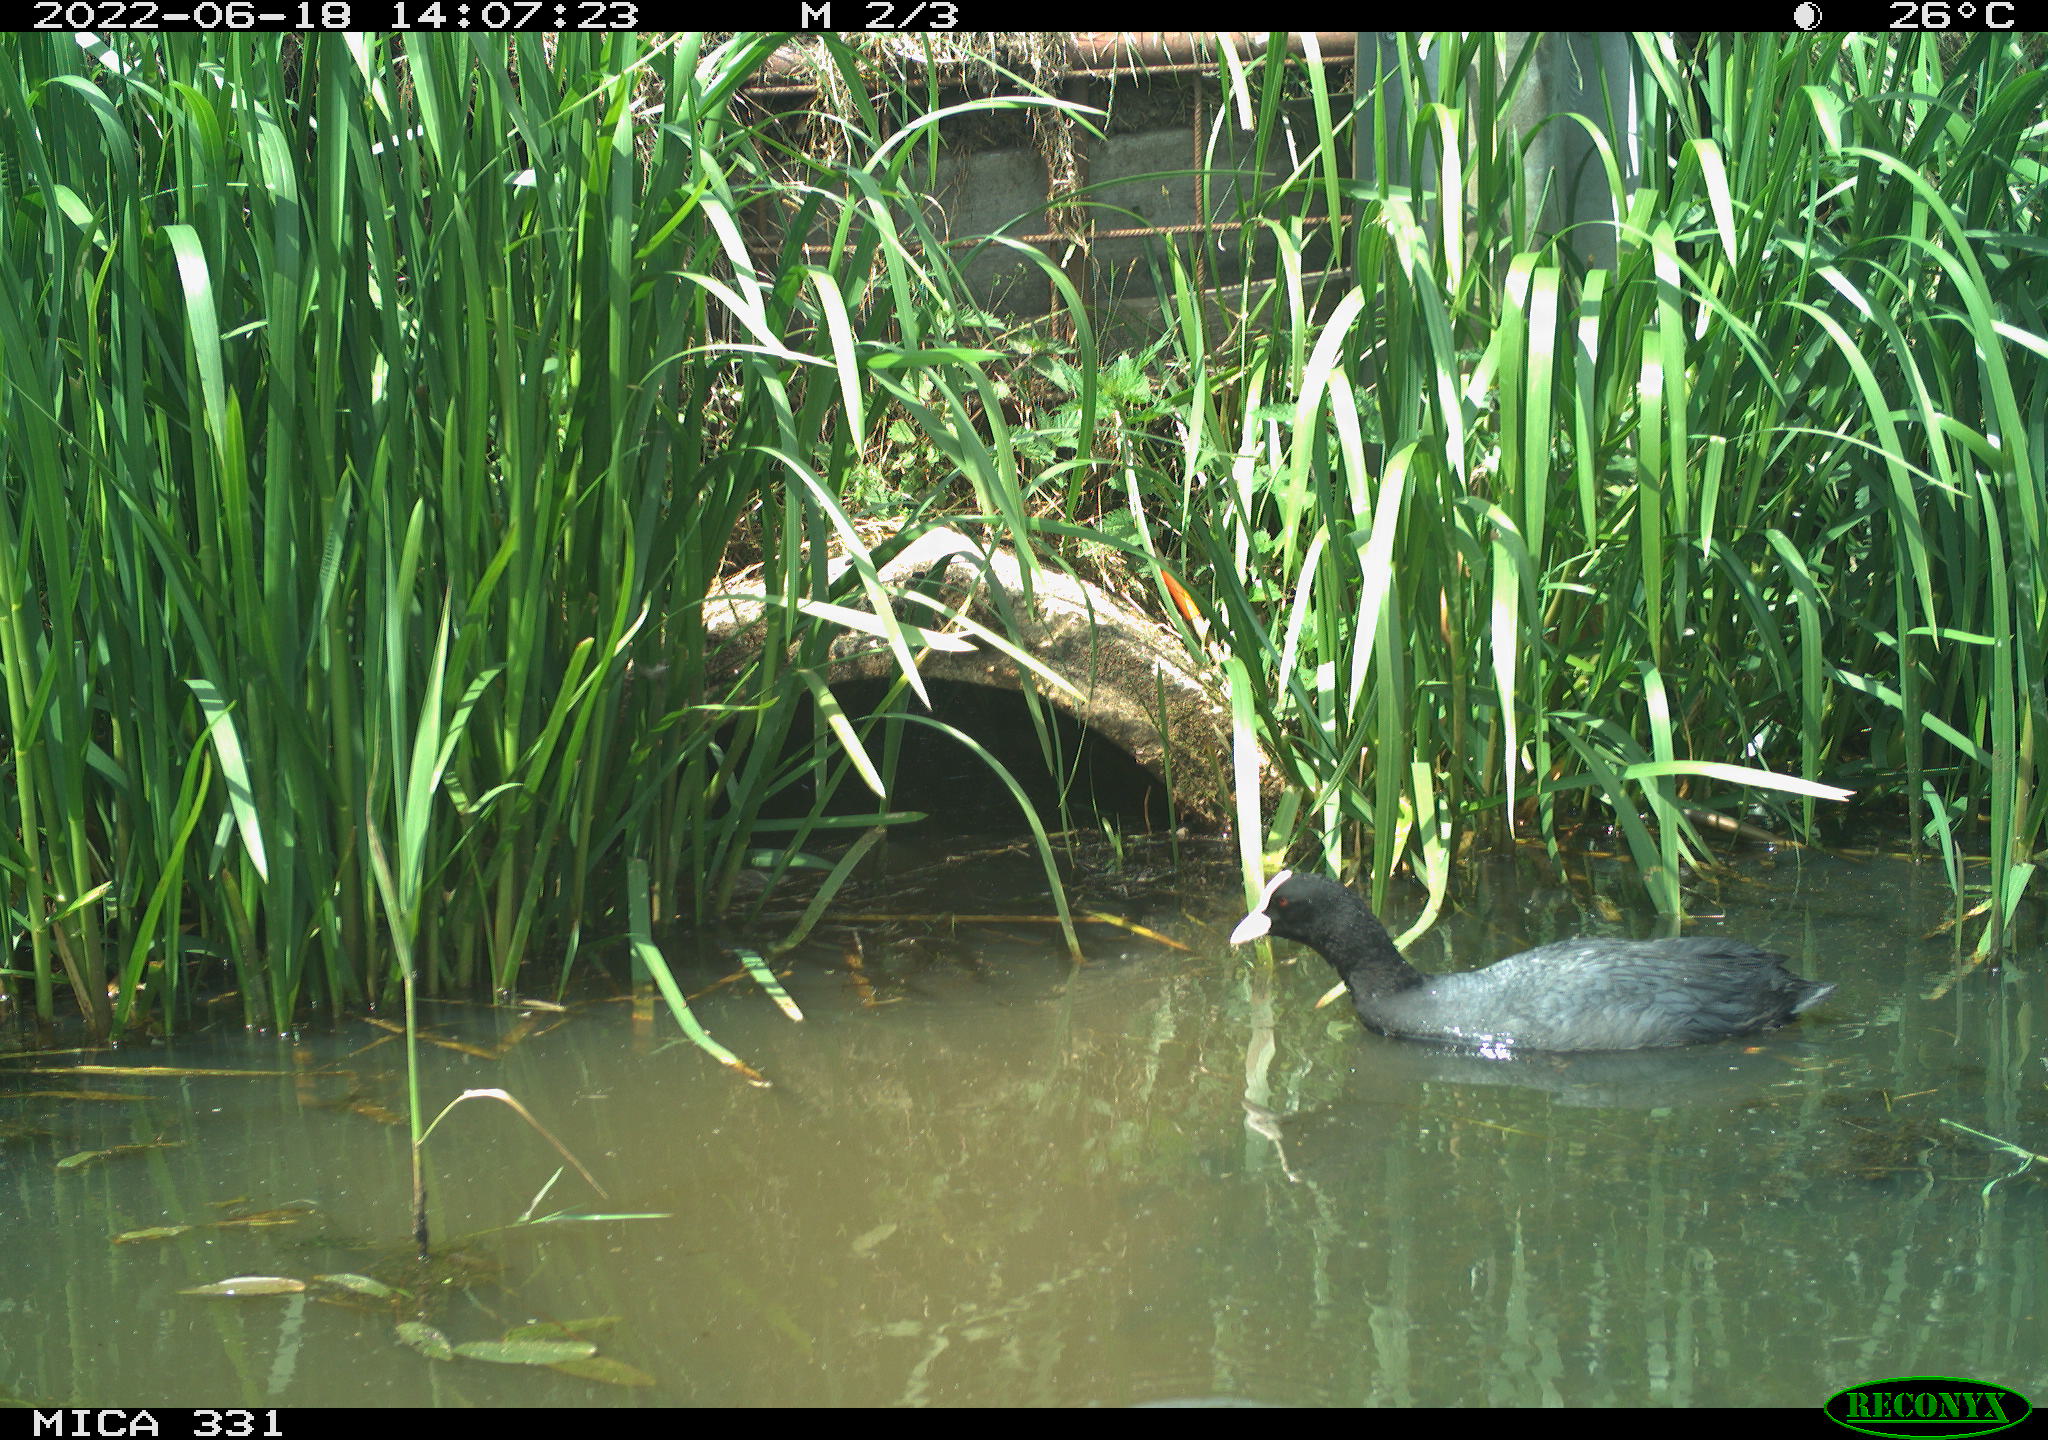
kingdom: Animalia
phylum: Chordata
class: Aves
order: Gruiformes
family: Rallidae
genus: Fulica
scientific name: Fulica atra
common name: Eurasian coot
